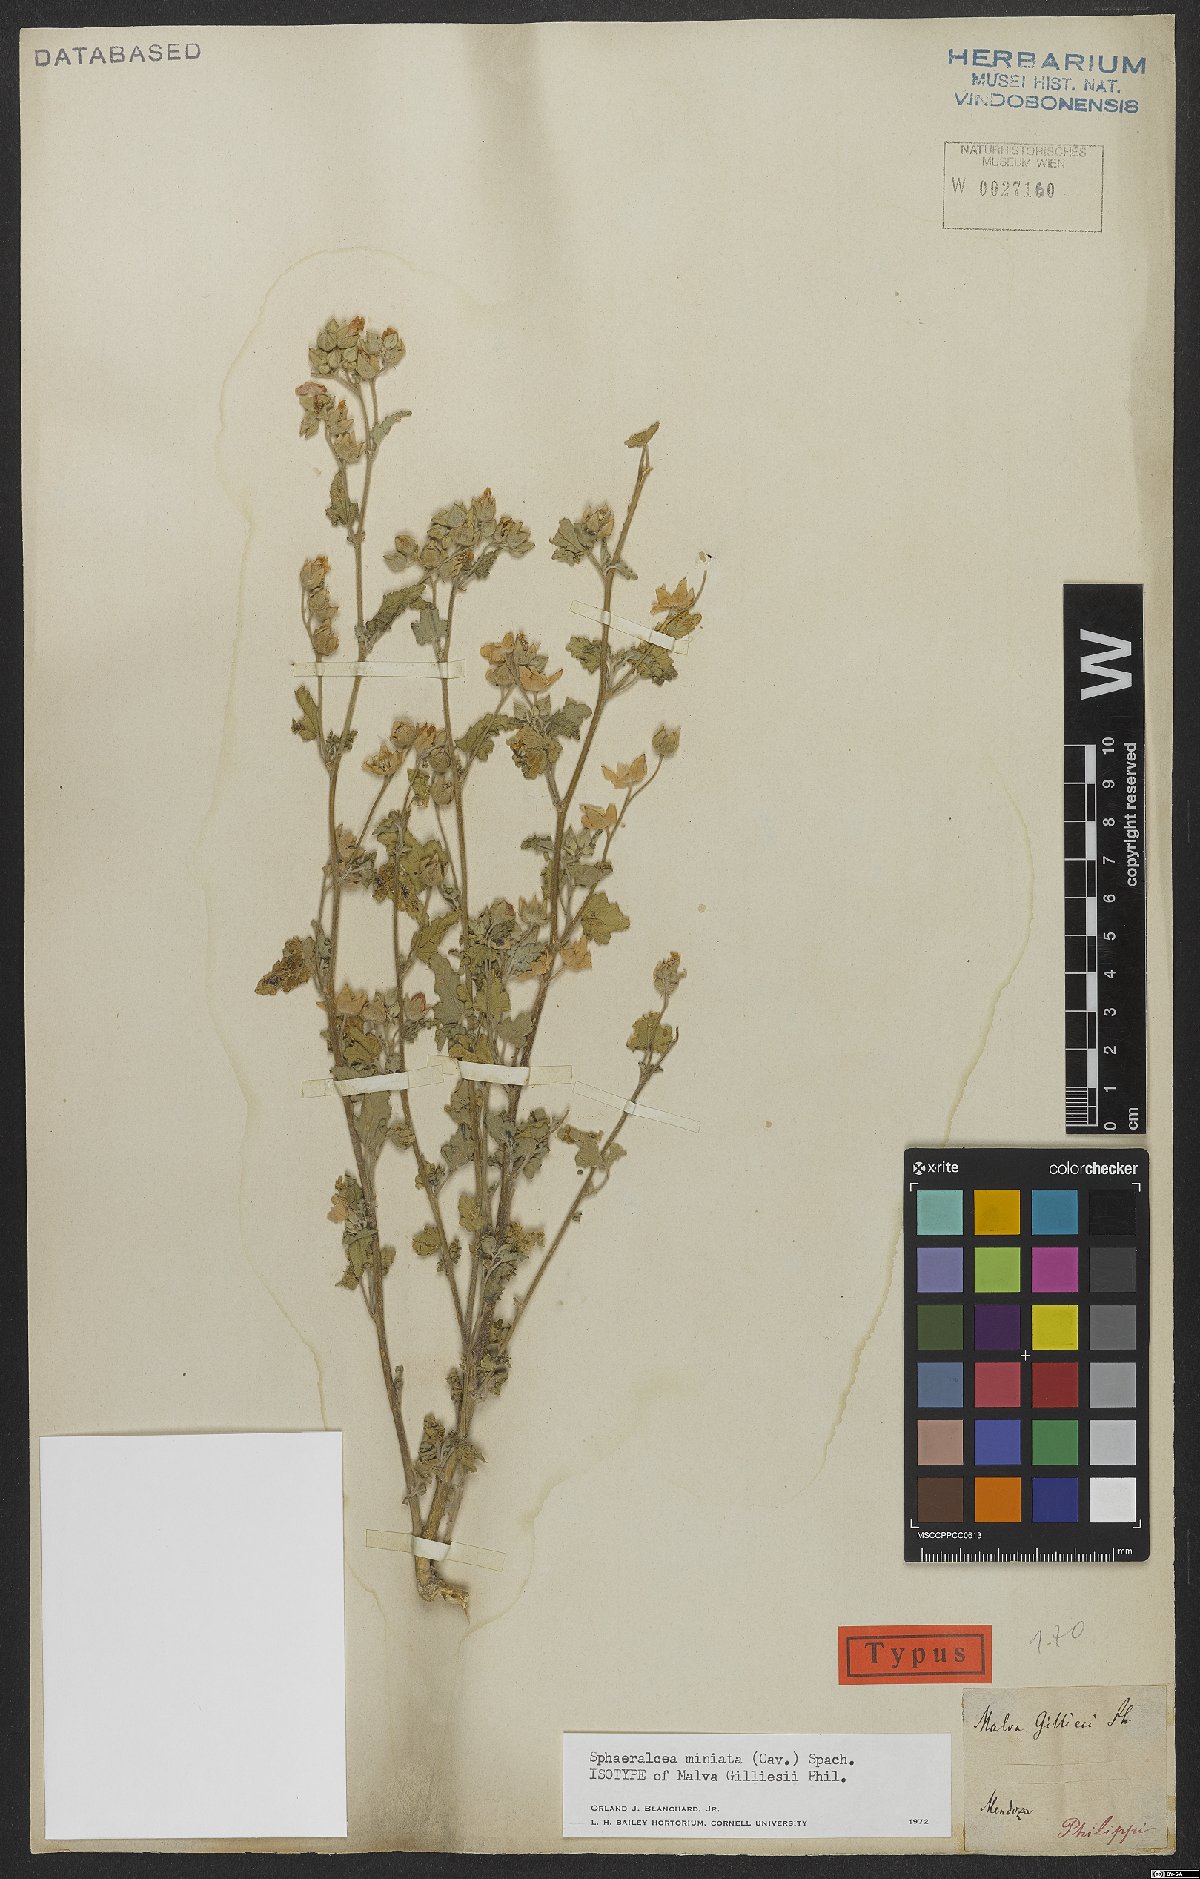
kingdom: Plantae
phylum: Tracheophyta
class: Magnoliopsida
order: Malvales
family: Malvaceae
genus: Sphaeralcea
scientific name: Sphaeralcea miniata
